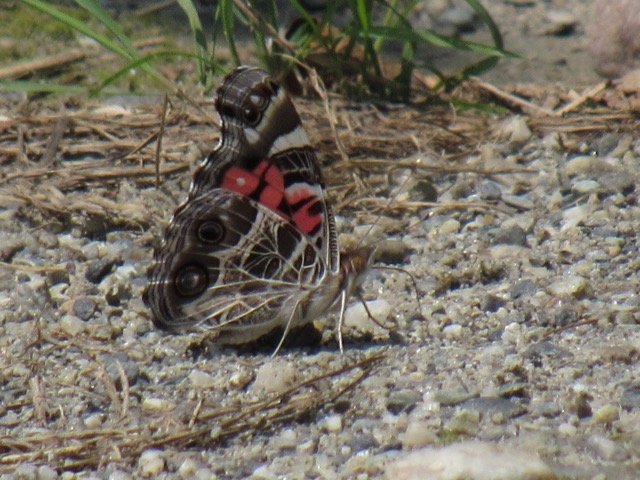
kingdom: Animalia
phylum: Arthropoda
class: Insecta
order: Lepidoptera
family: Nymphalidae
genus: Vanessa
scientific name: Vanessa virginiensis
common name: American Lady
